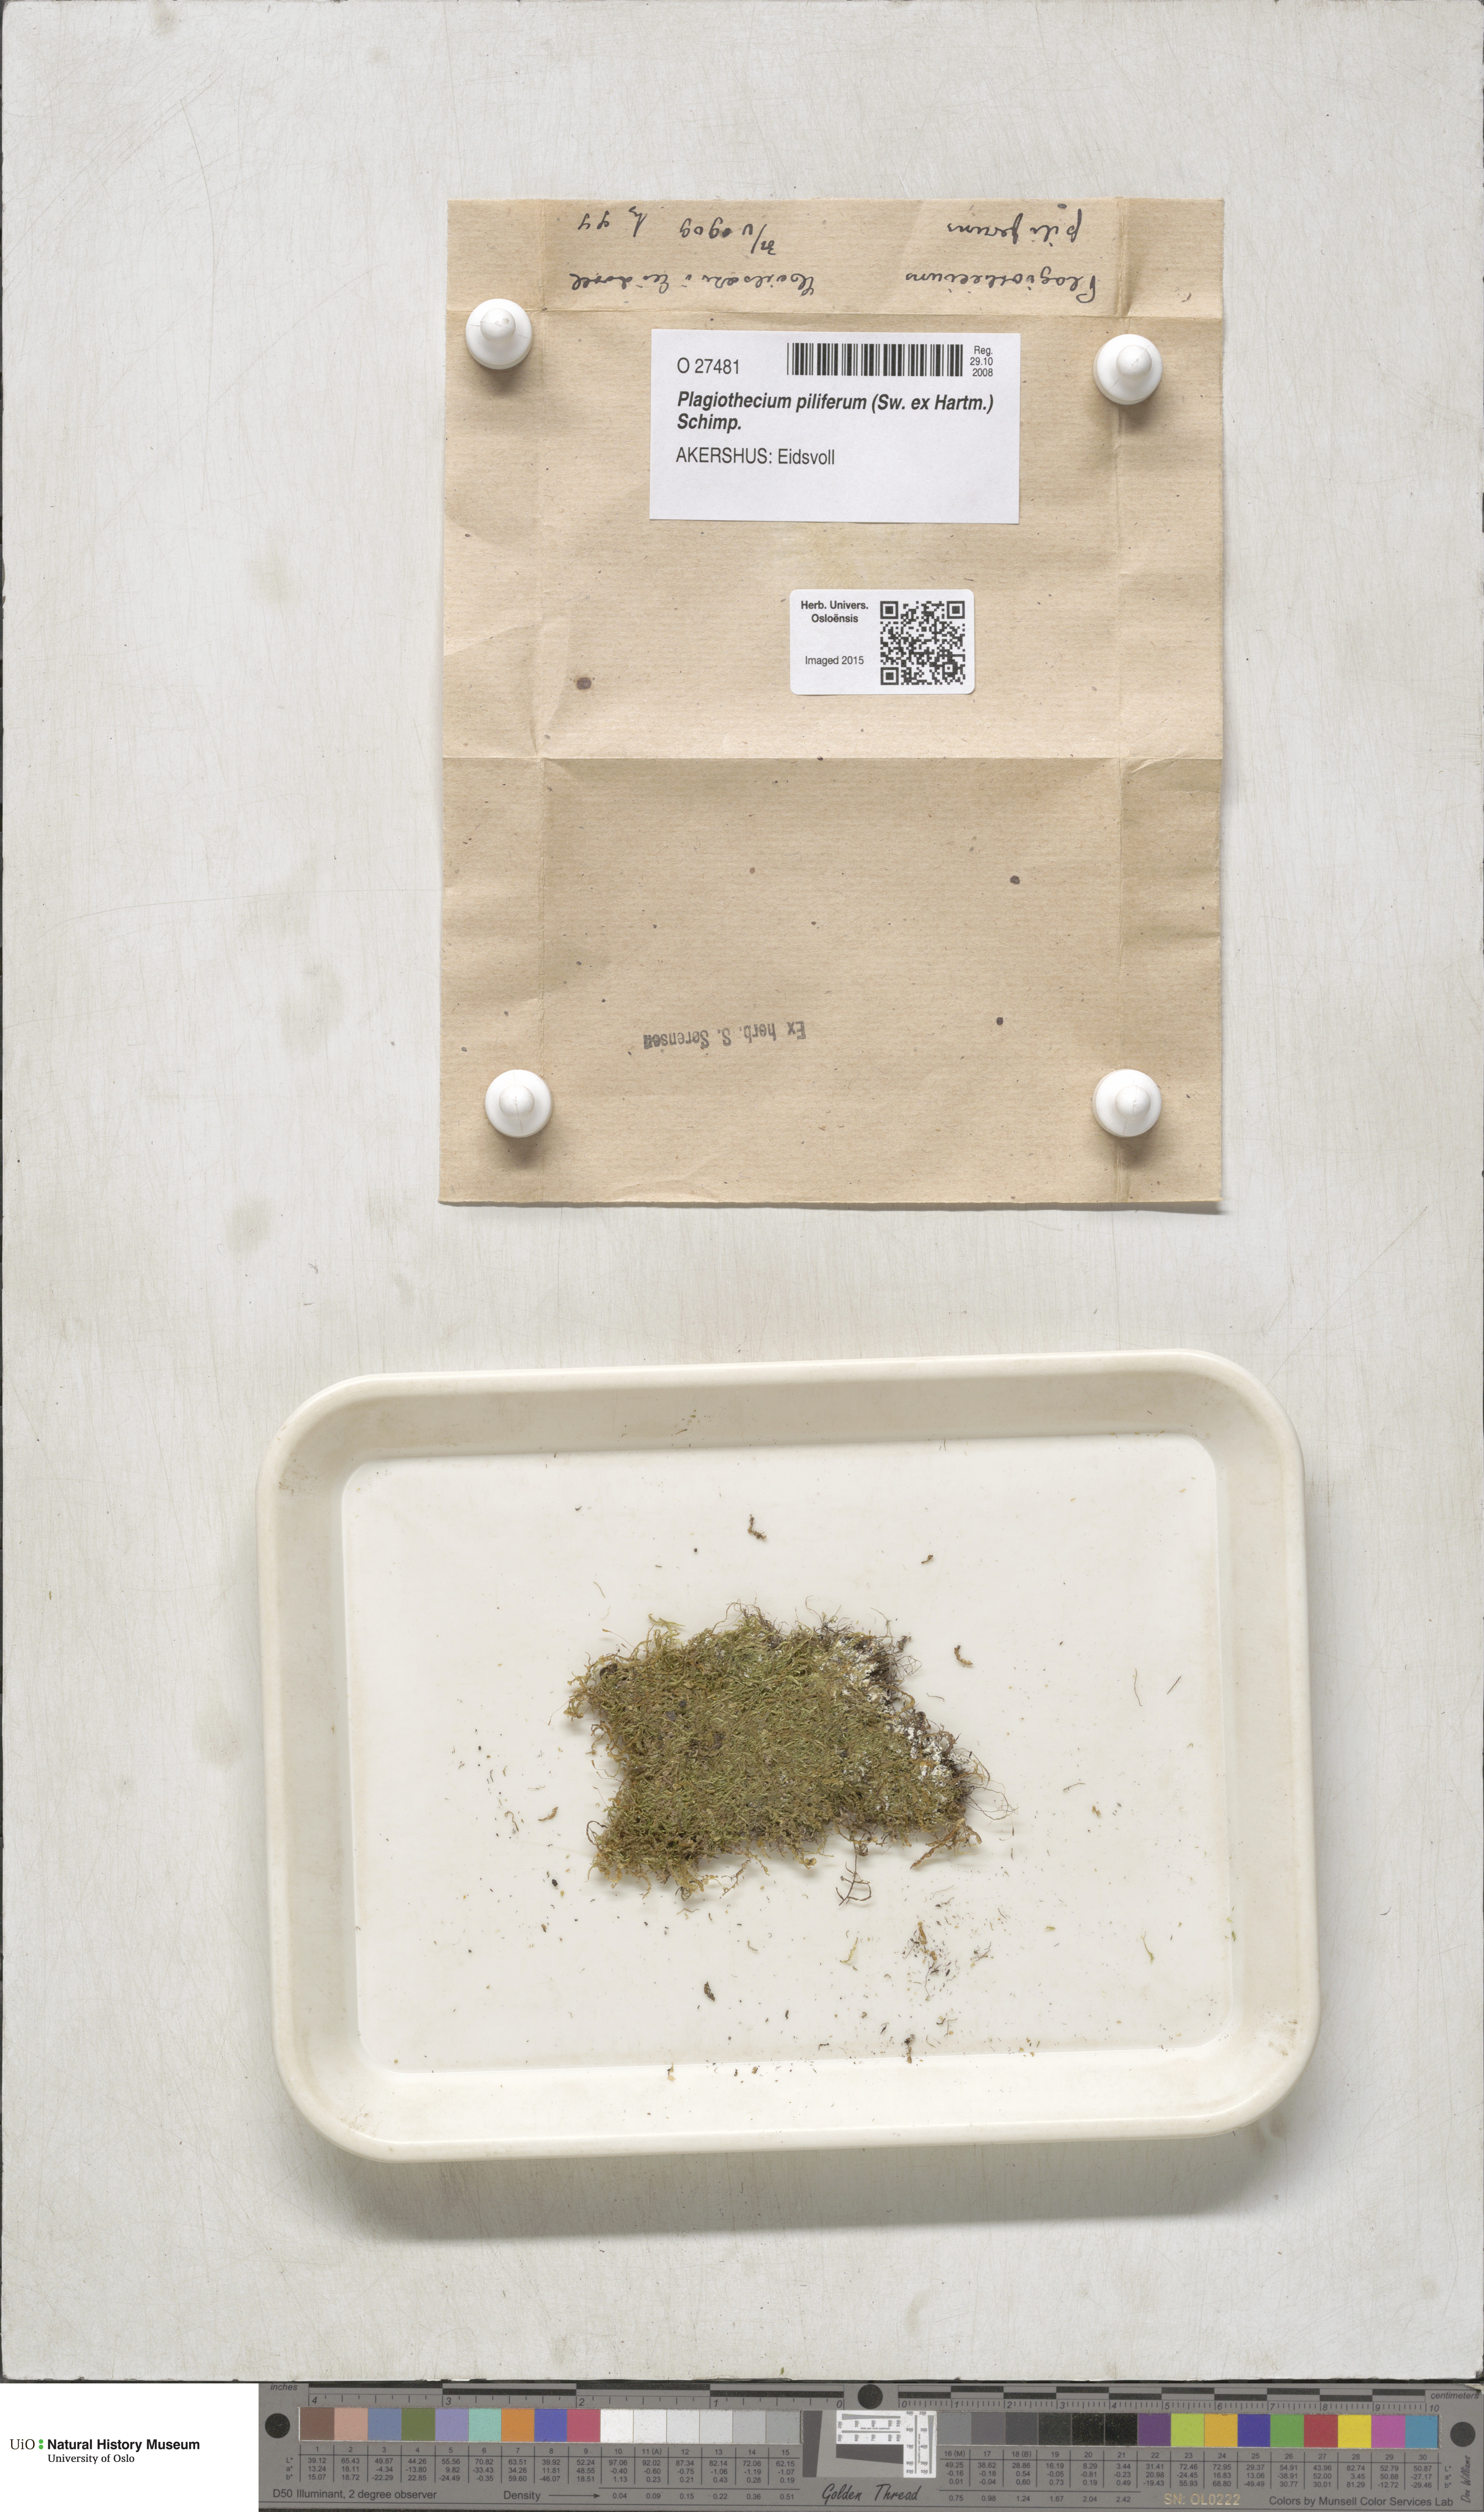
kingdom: Plantae
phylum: Bryophyta
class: Bryopsida
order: Hypnales
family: Plagiotheciaceae
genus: Rectithecium
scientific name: Rectithecium piliferum
